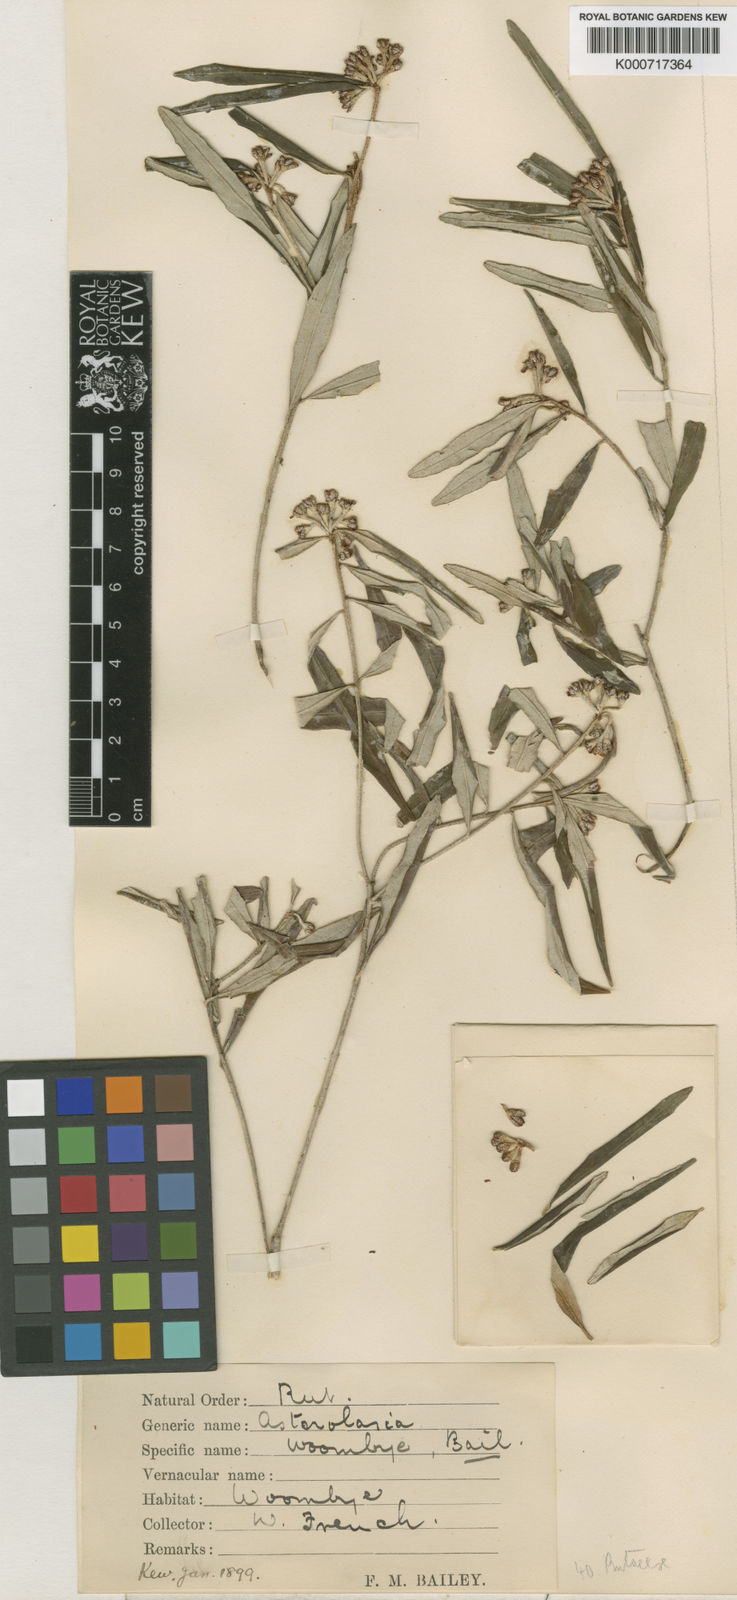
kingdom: Plantae
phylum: Tracheophyta
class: Magnoliopsida
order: Sapindales
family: Rutaceae
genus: Phebalium
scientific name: Phebalium woombye
